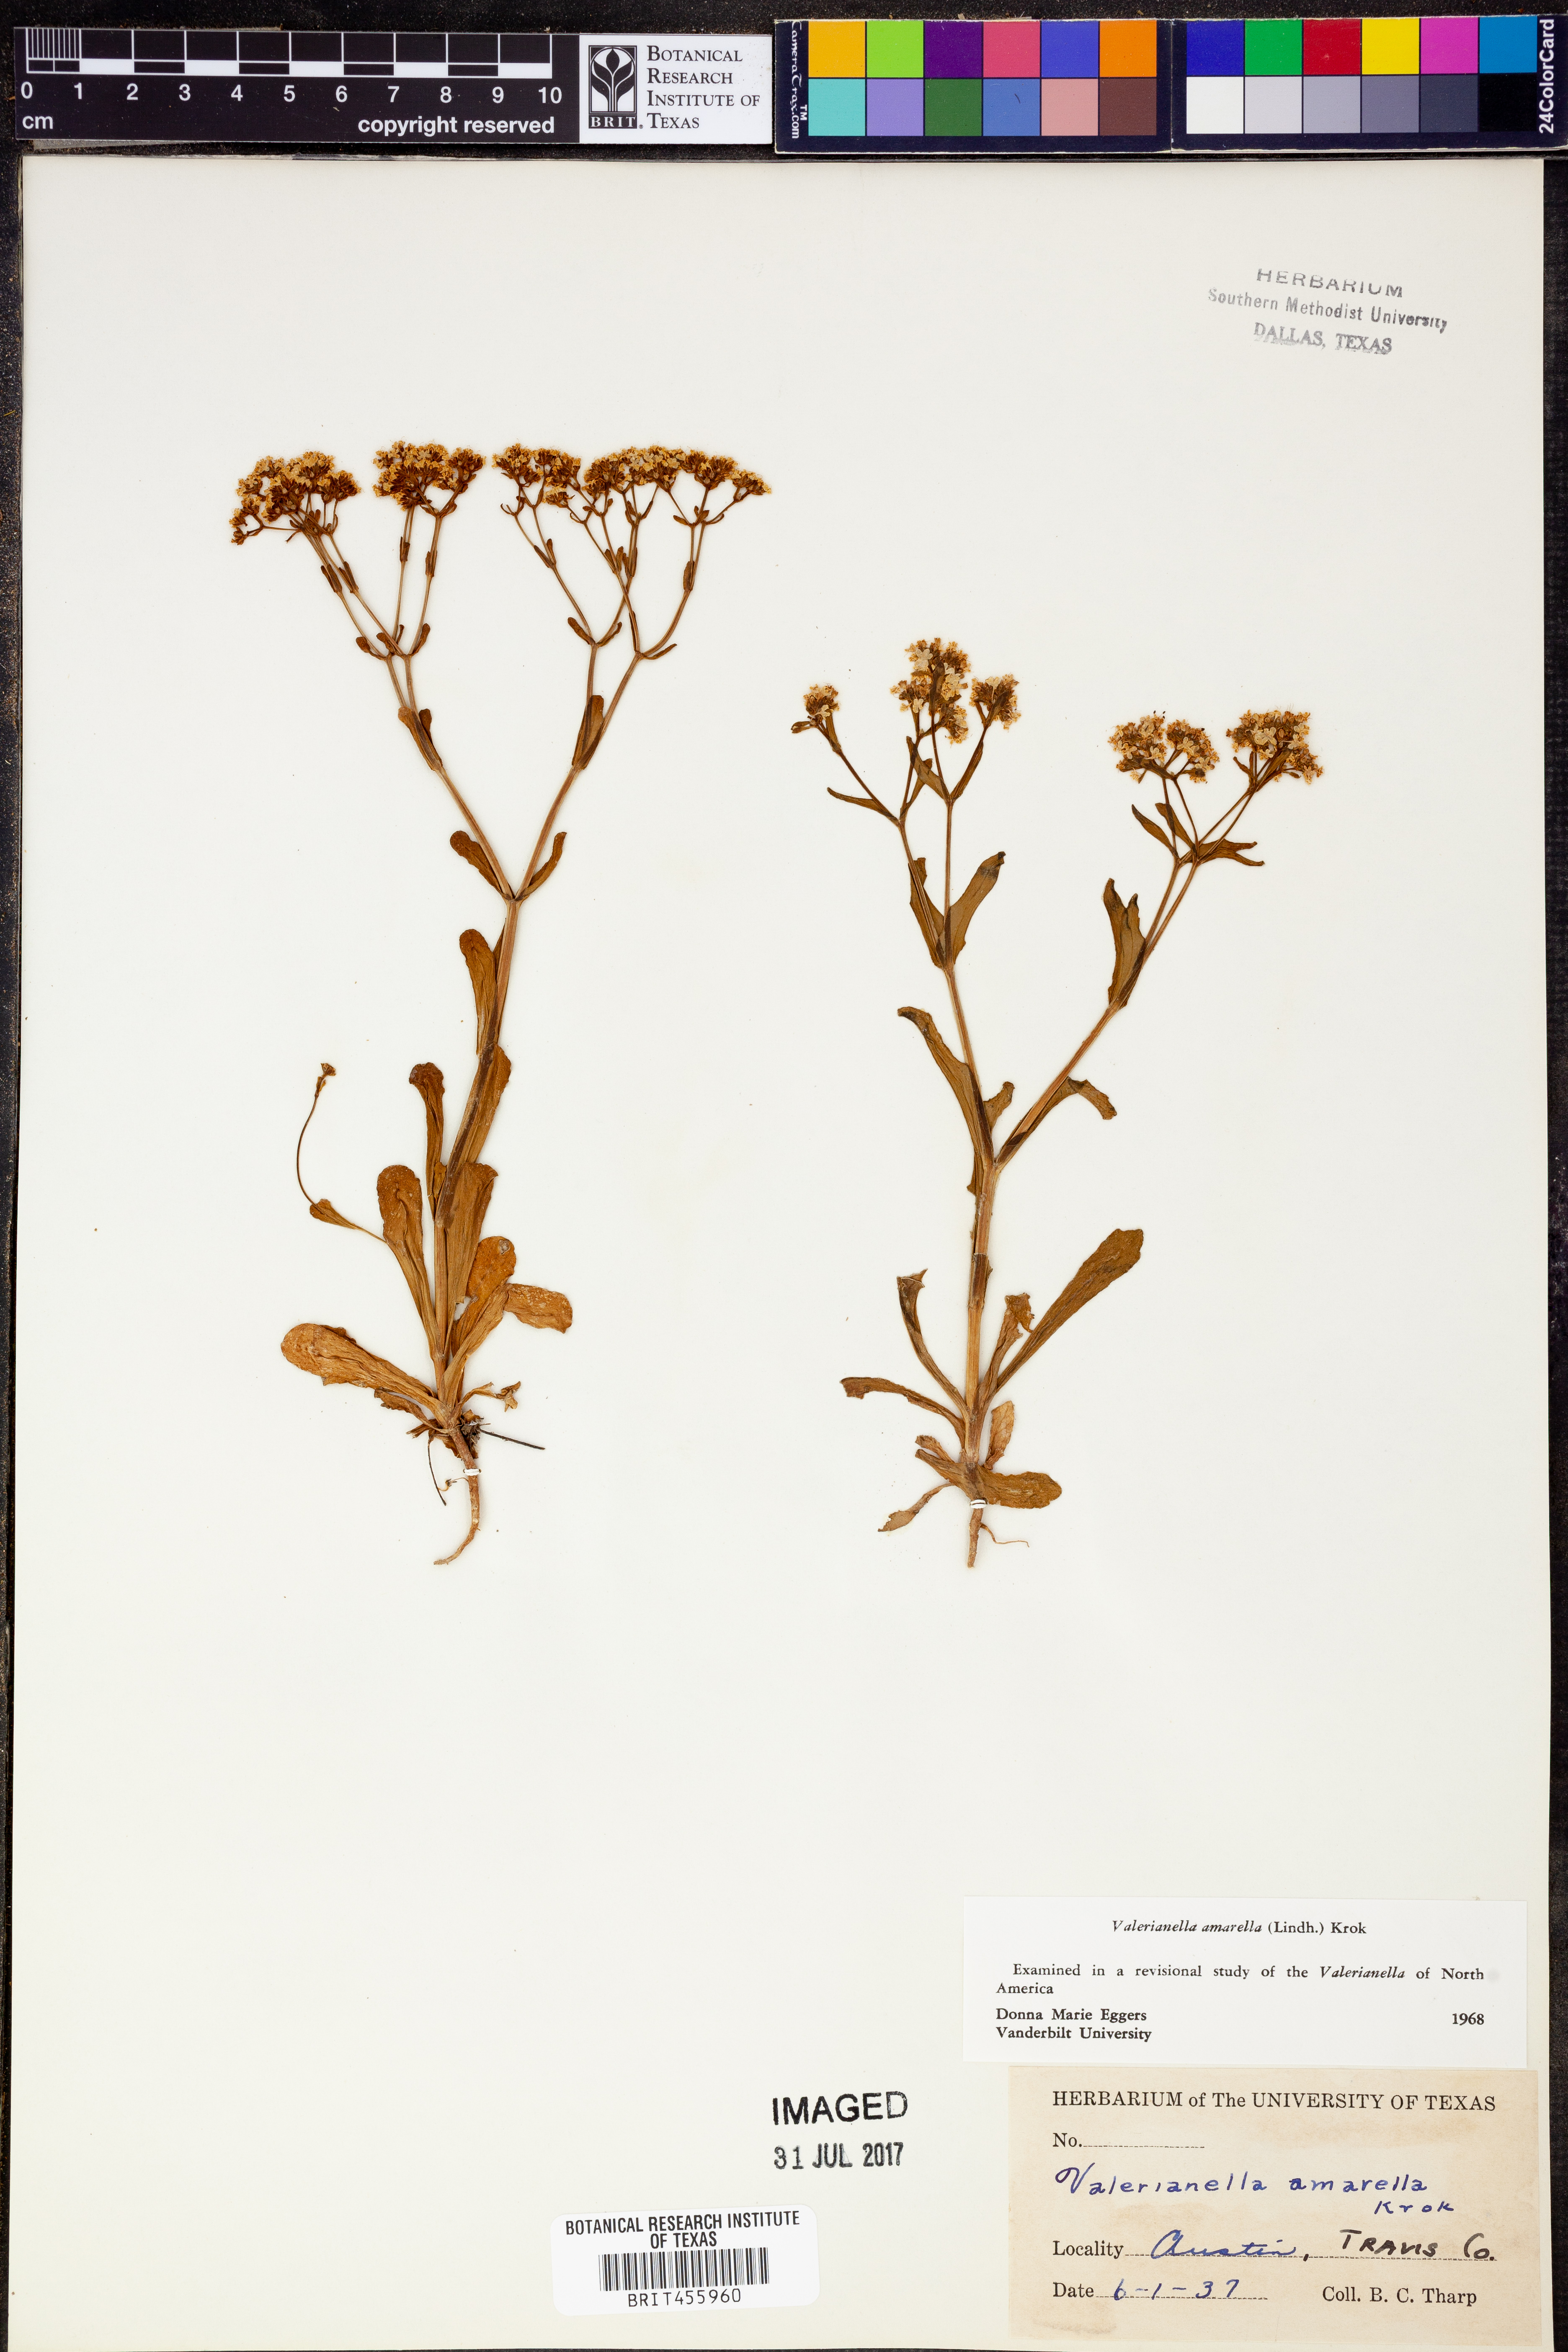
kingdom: Plantae
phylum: Tracheophyta
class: Magnoliopsida
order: Dipsacales
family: Caprifoliaceae
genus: Valerianella
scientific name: Valerianella amarella
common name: Hariy cornsalad
